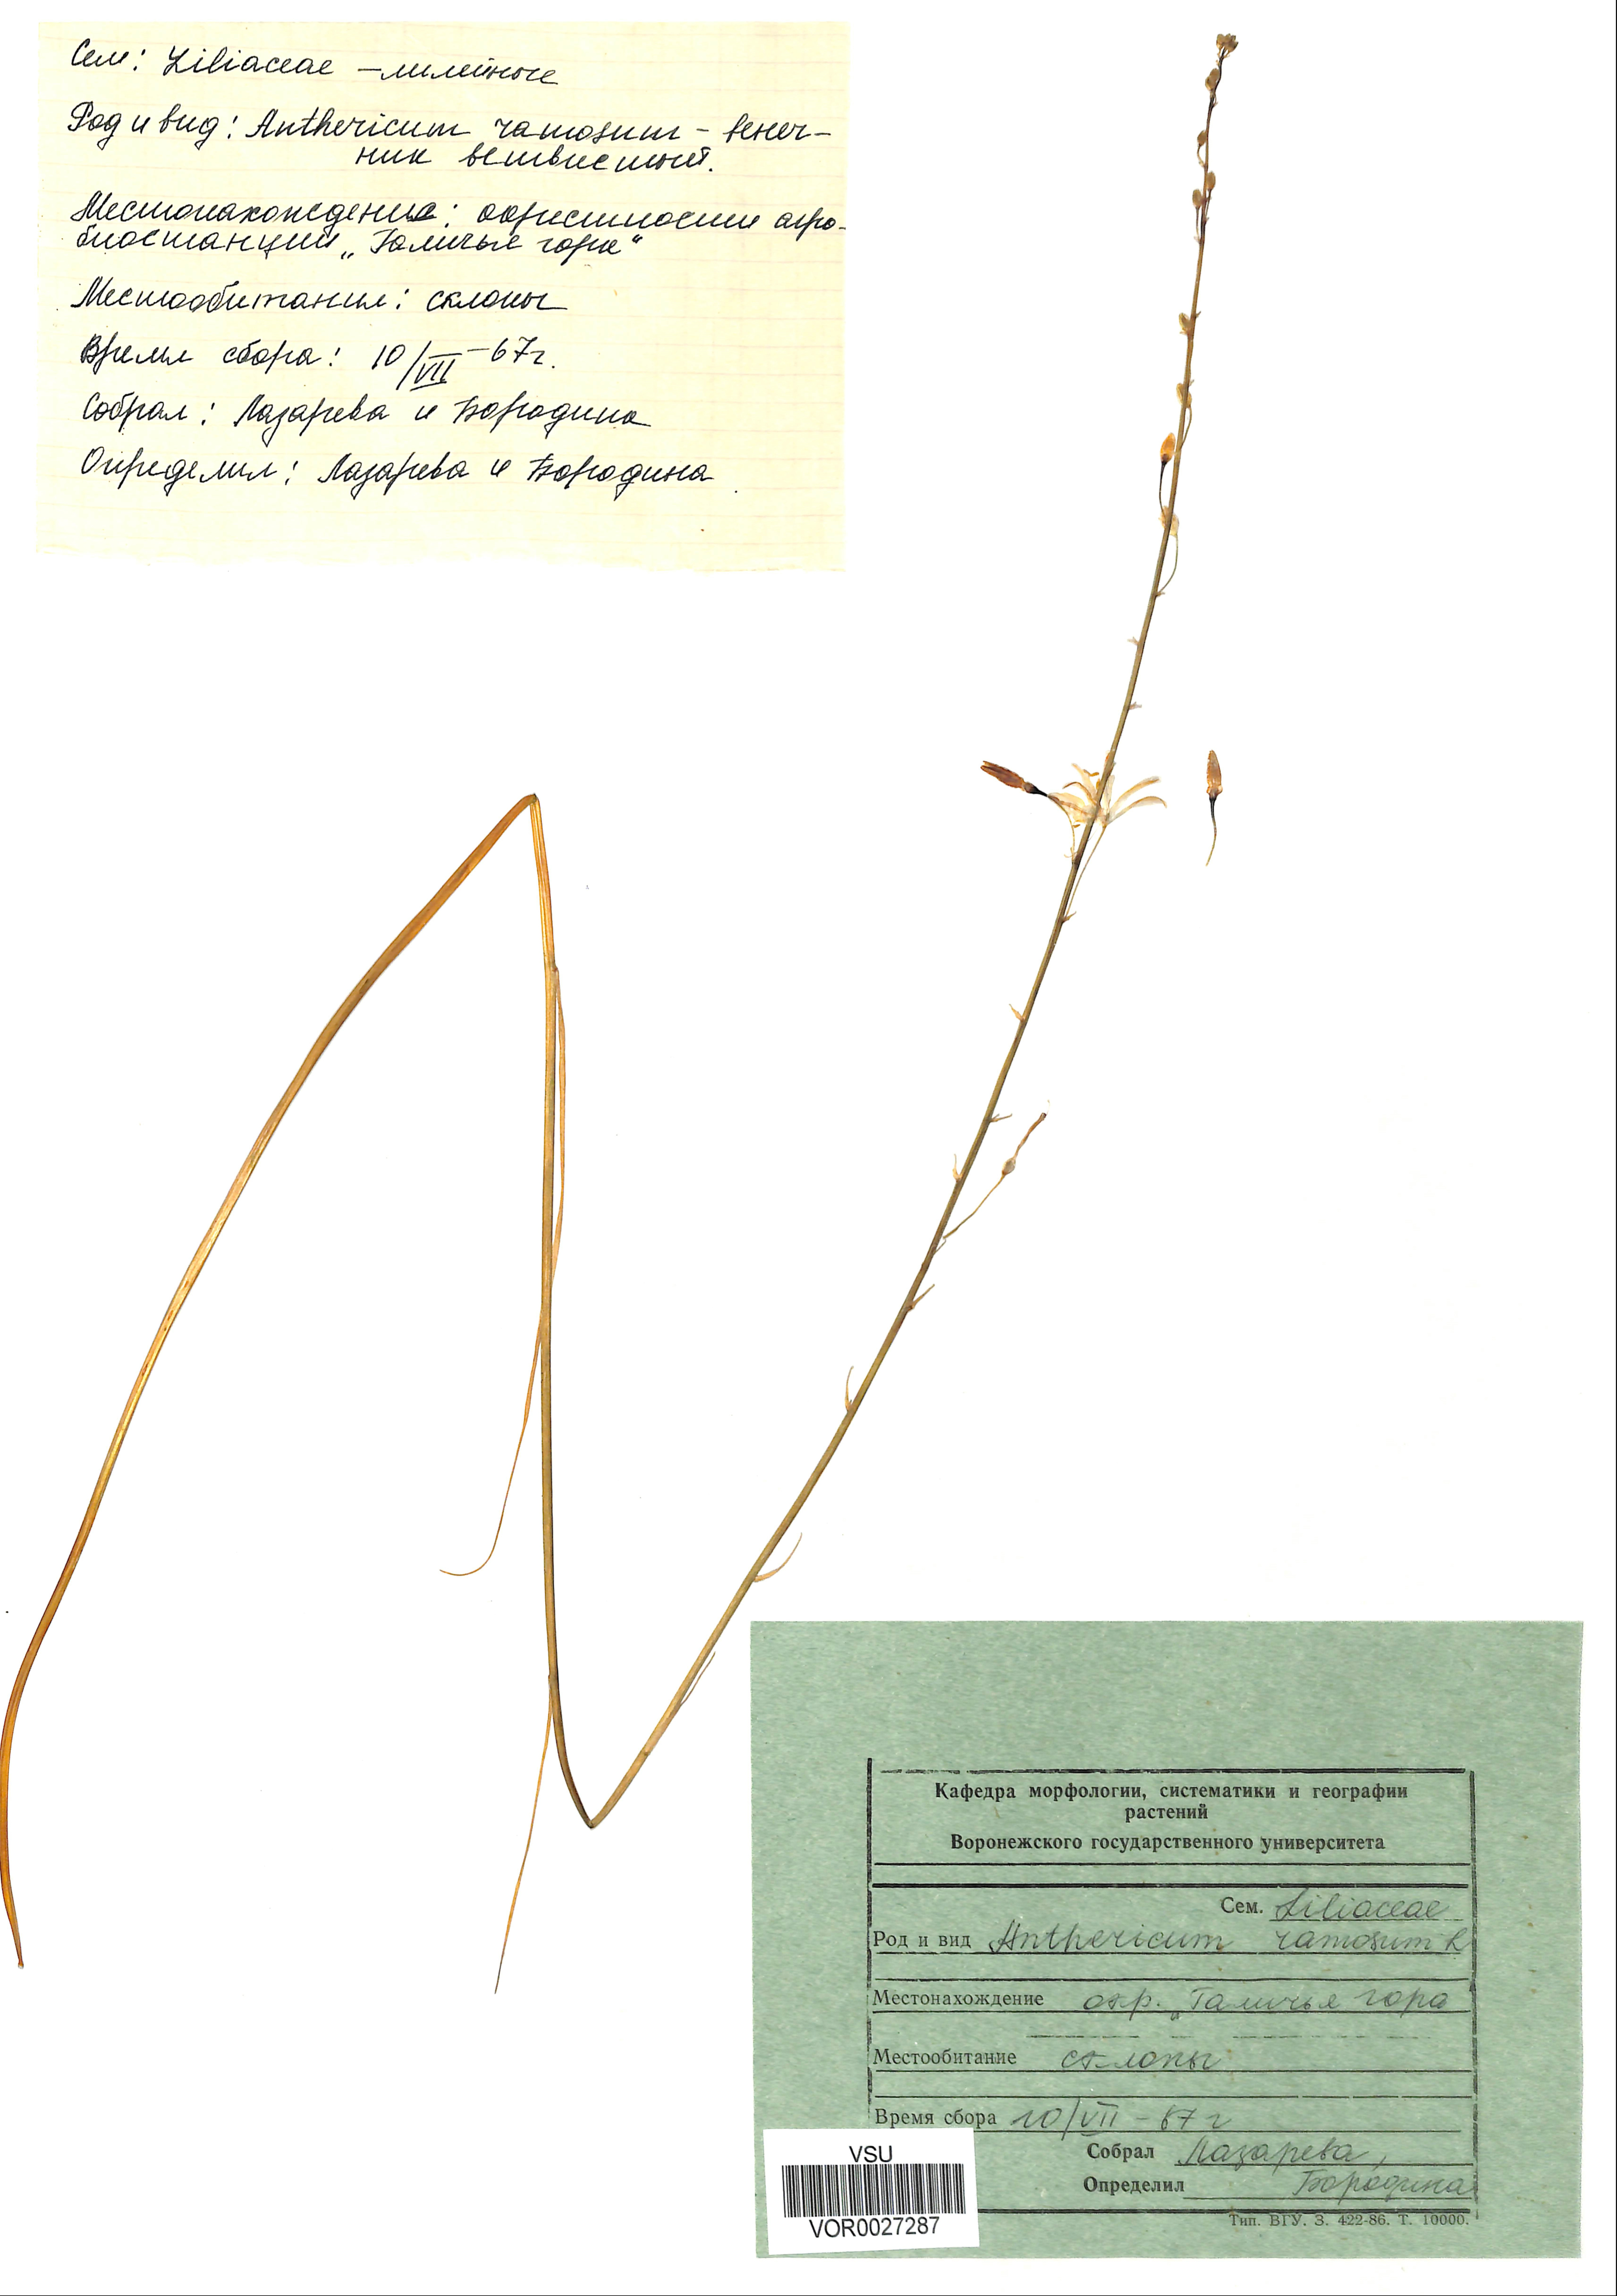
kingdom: Plantae
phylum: Tracheophyta
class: Liliopsida
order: Asparagales
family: Asparagaceae
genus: Anthericum
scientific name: Anthericum ramosum
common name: Branched st. bernard's-lily
